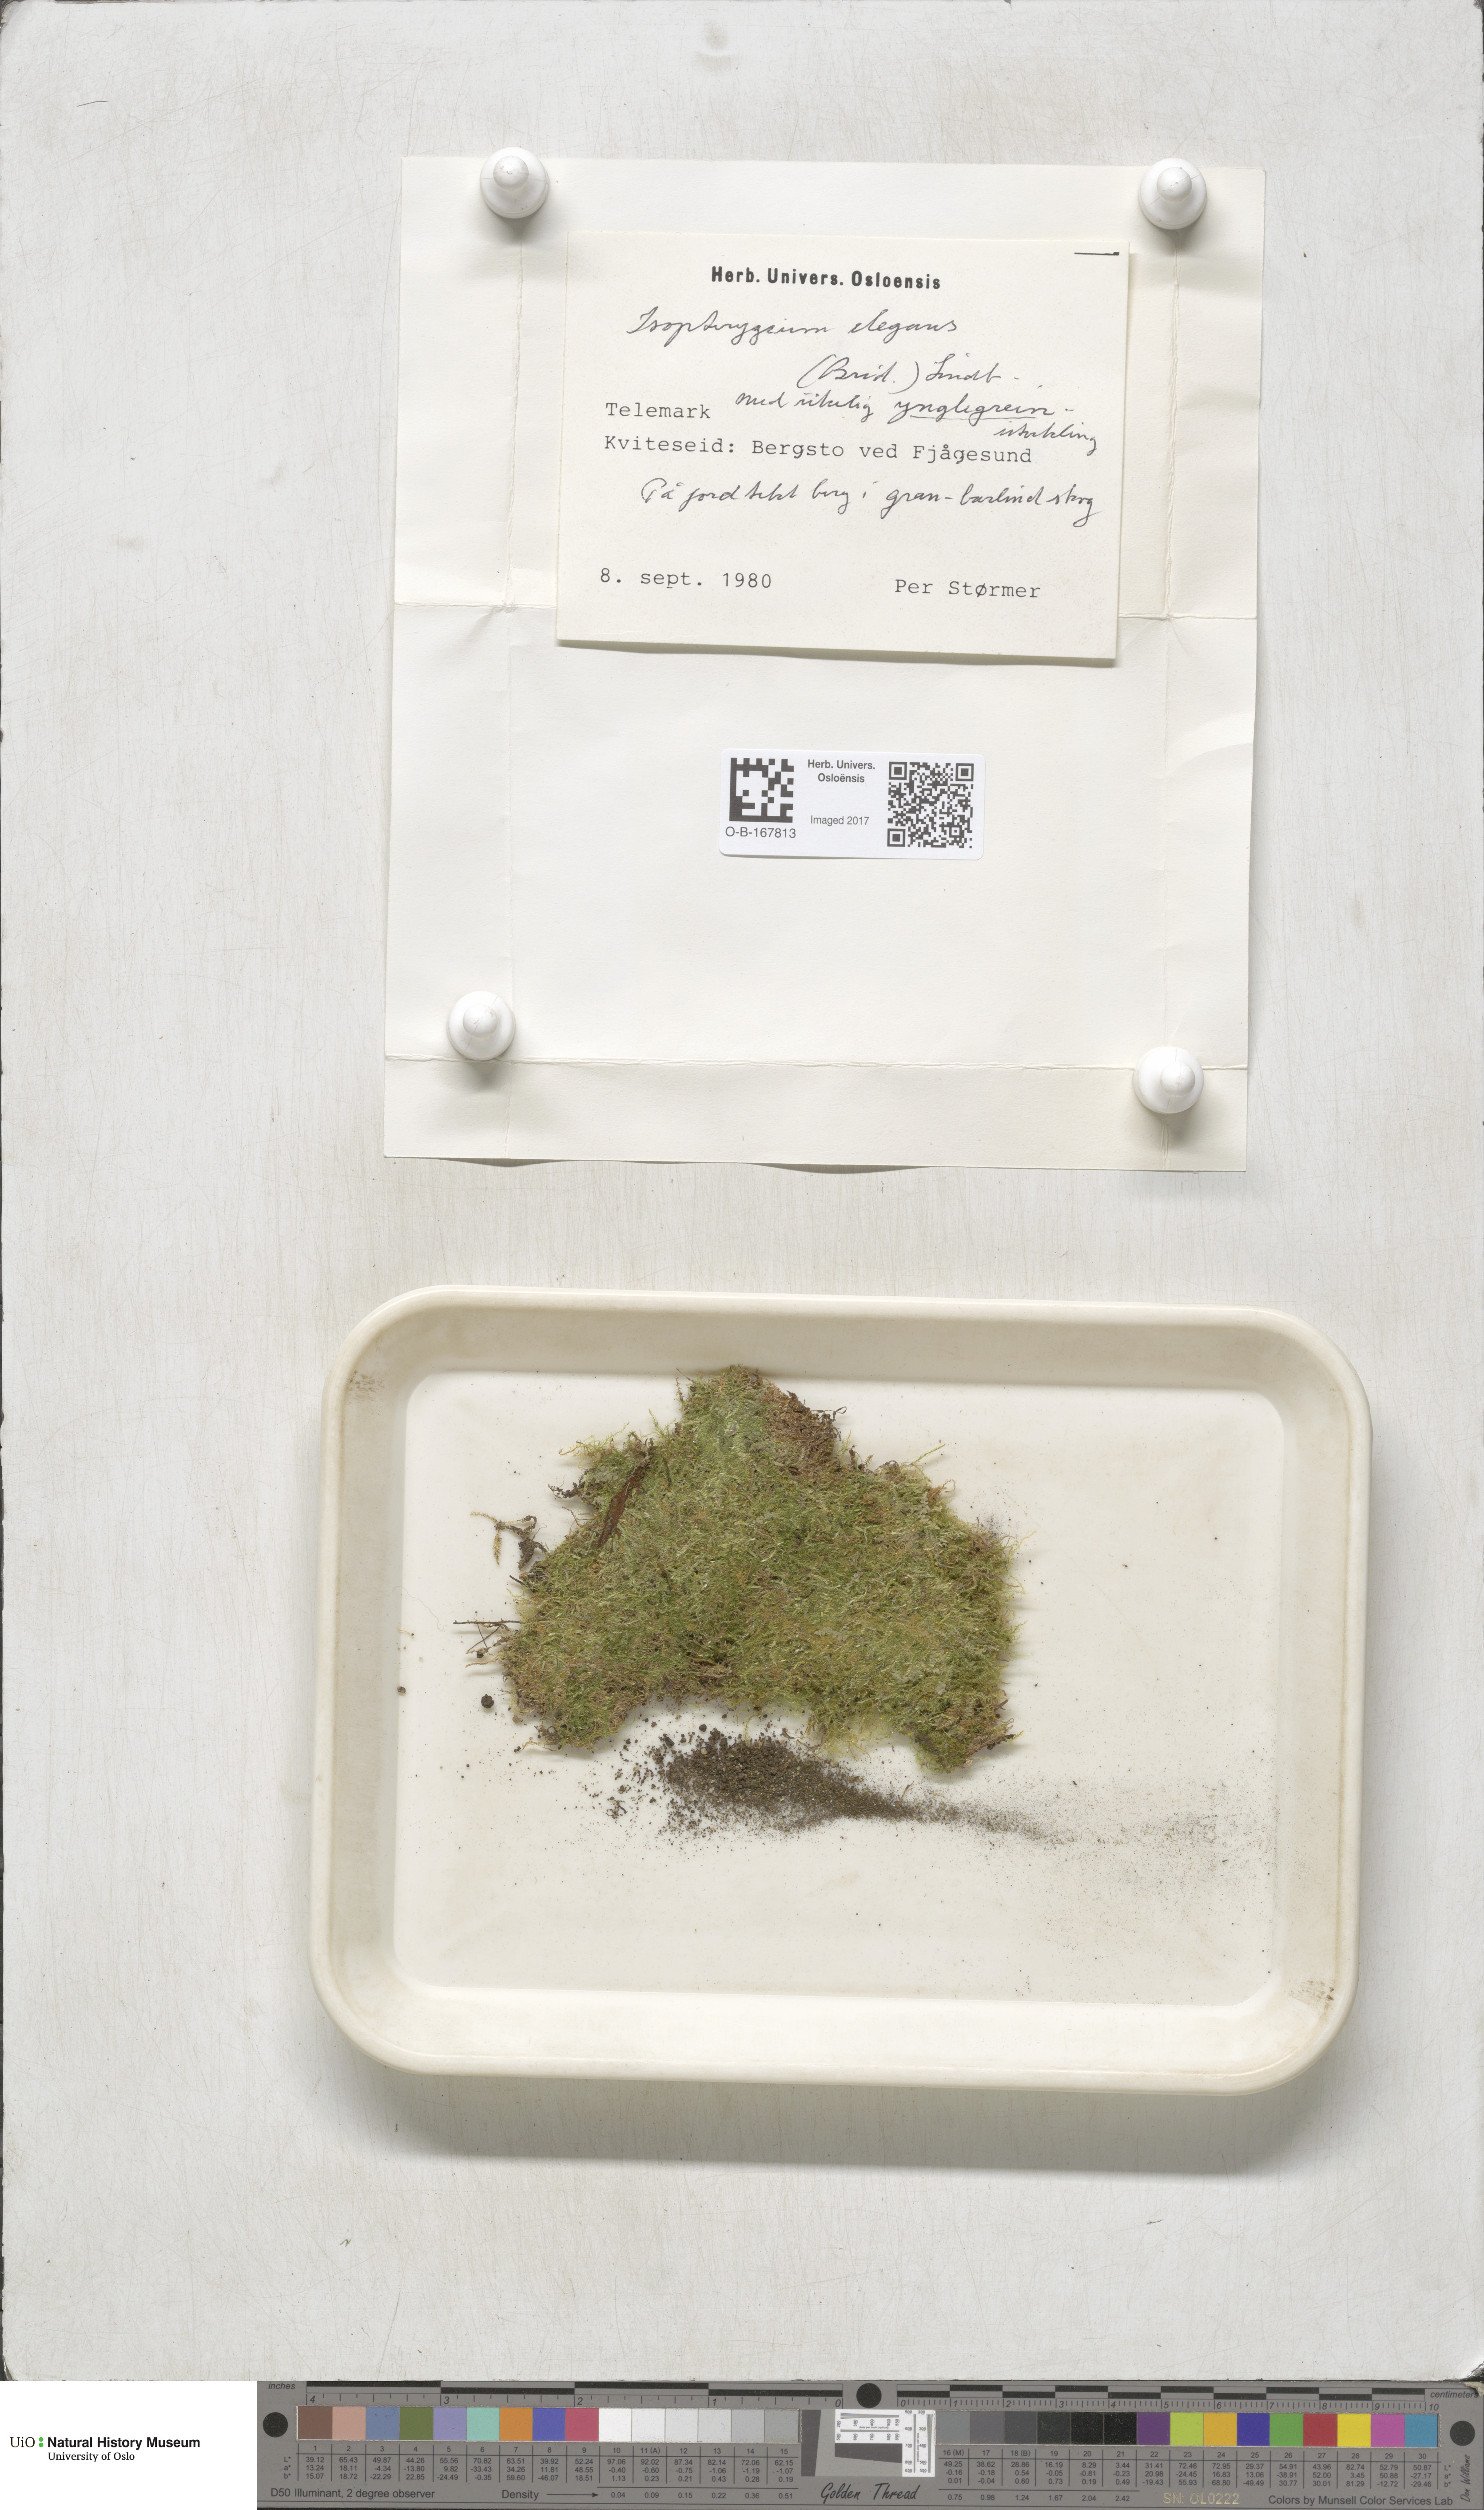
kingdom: Plantae
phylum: Bryophyta
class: Bryopsida
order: Hypnales
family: Plagiotheciaceae
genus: Pseudotaxiphyllum
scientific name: Pseudotaxiphyllum elegans
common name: Elegant silk moss
